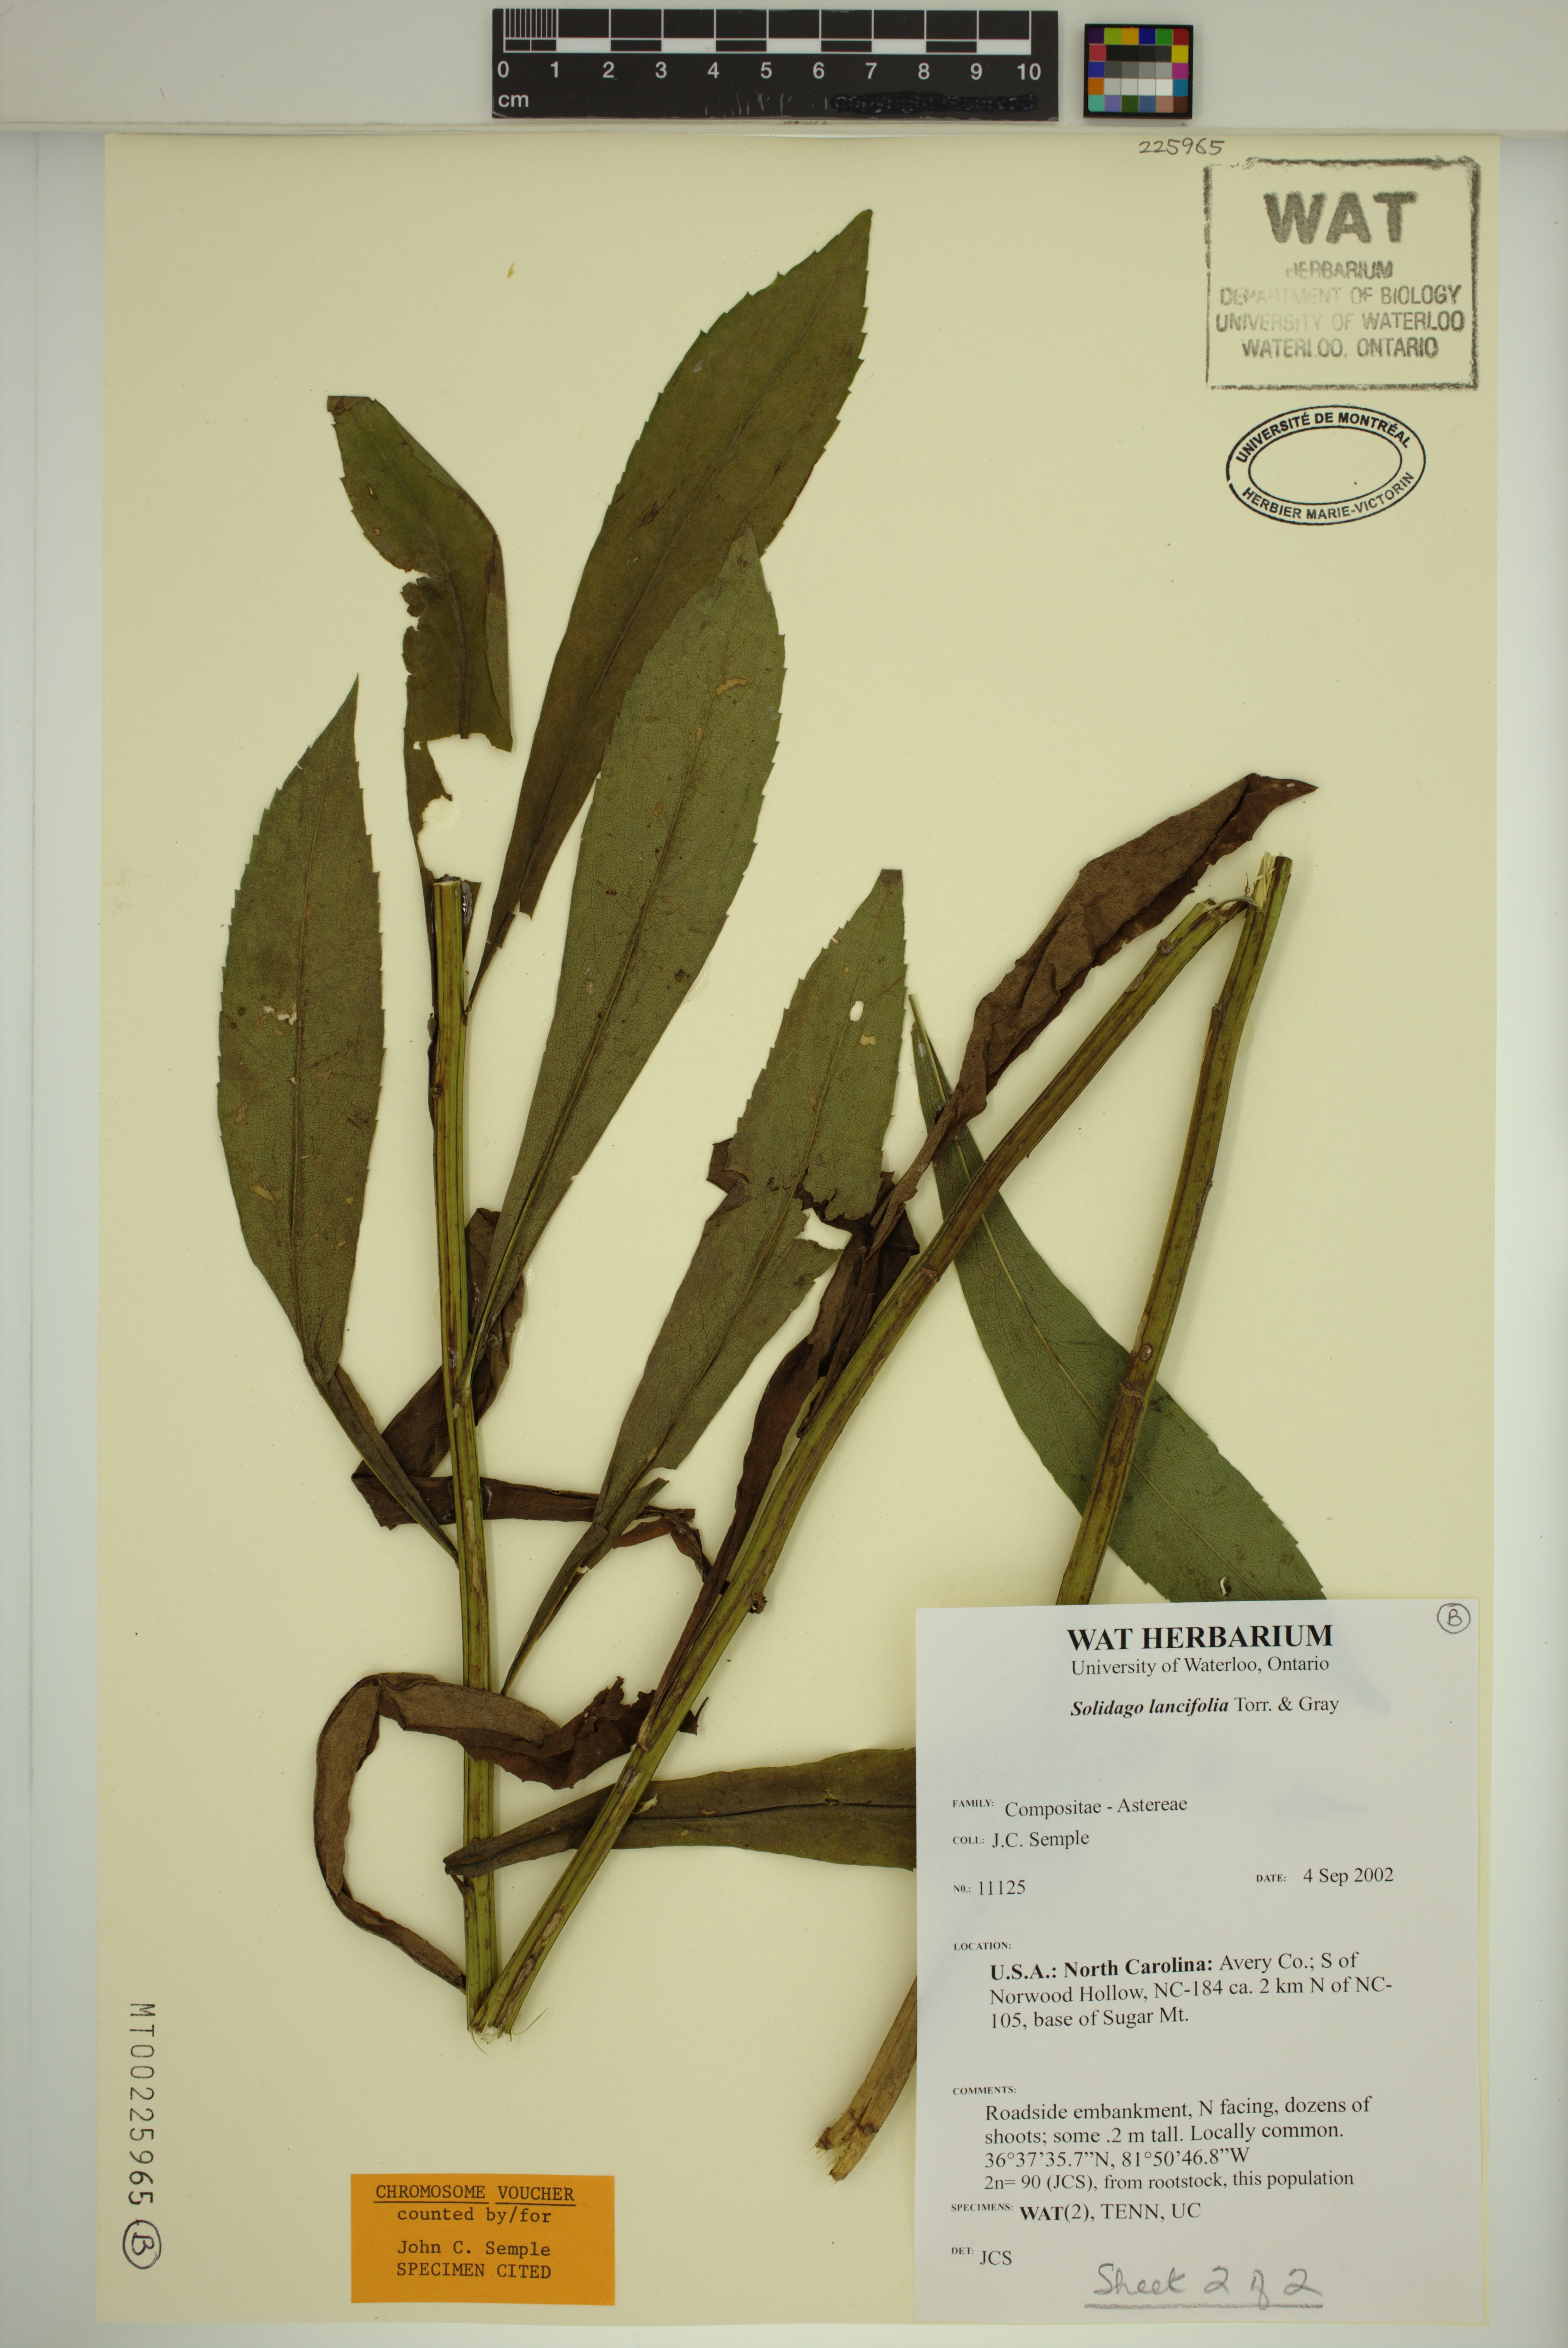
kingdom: Plantae
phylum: Tracheophyta
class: Magnoliopsida
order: Asterales
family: Asteraceae
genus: Solidago
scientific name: Solidago lancifolia
